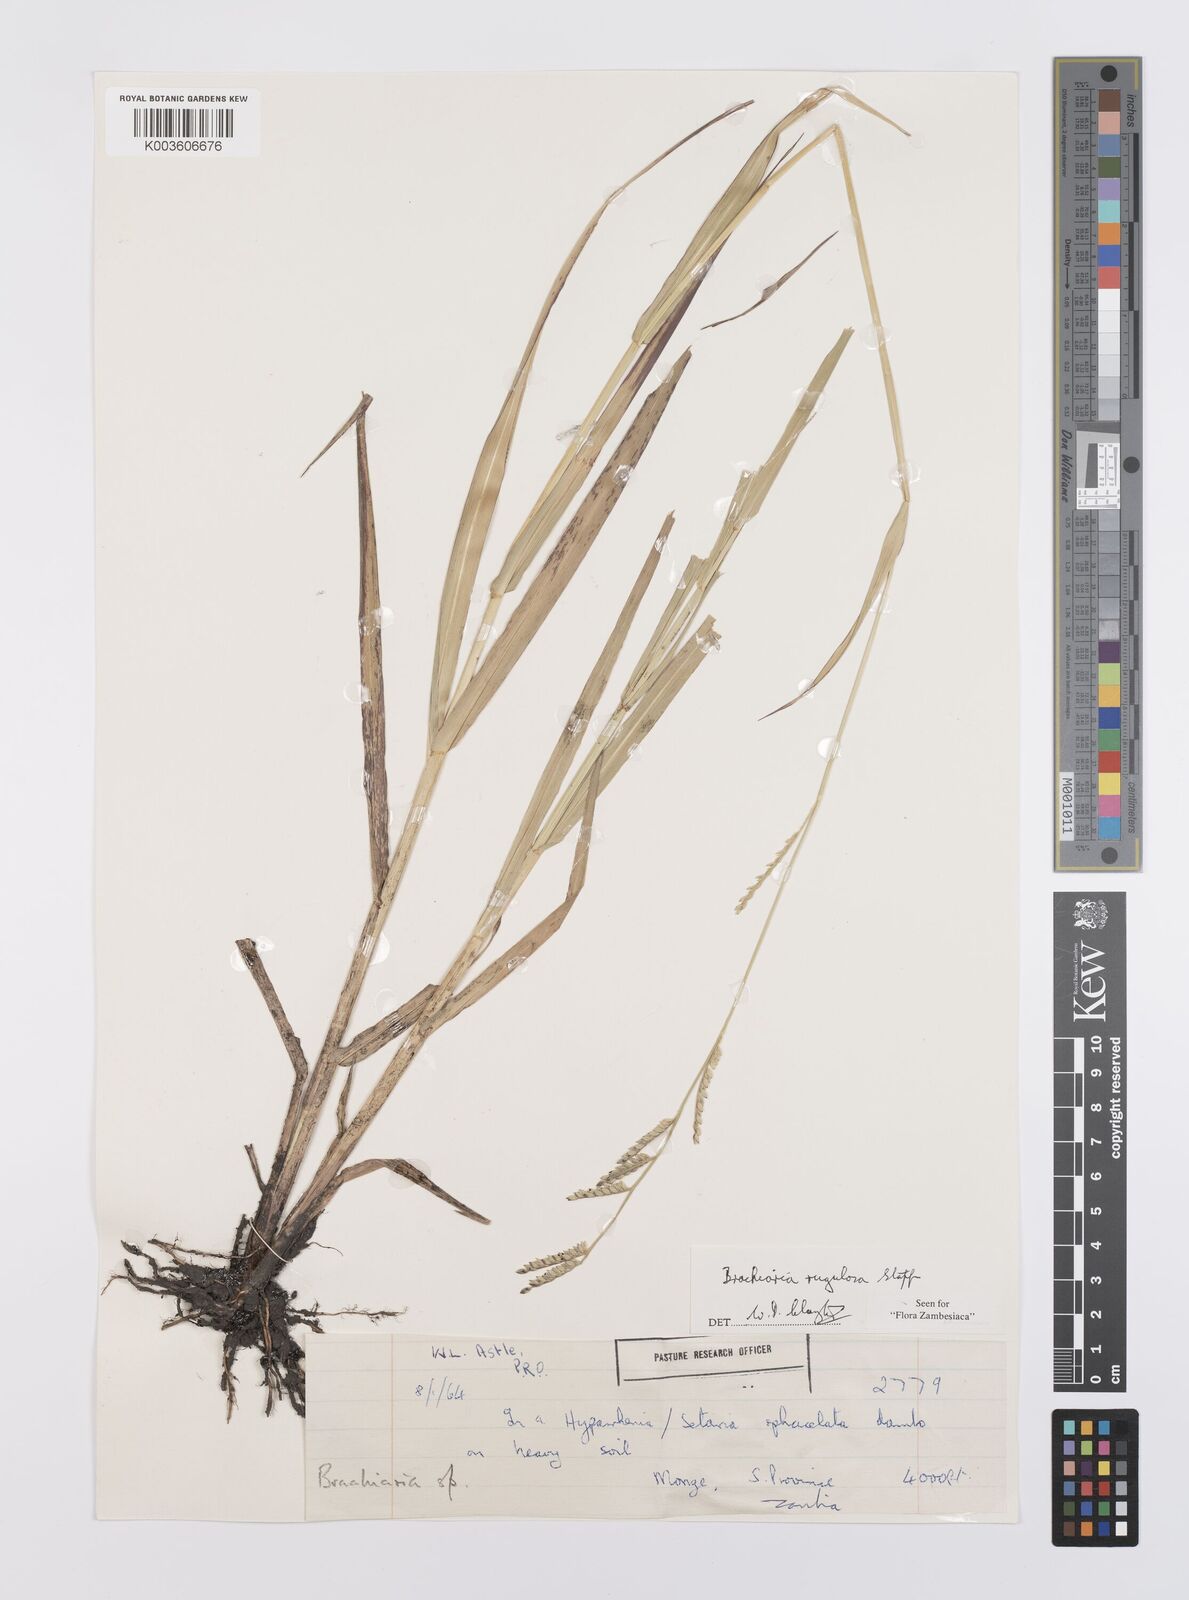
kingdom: Plantae
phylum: Tracheophyta
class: Liliopsida
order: Poales
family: Poaceae
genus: Urochloa
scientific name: Urochloa rugulosa
